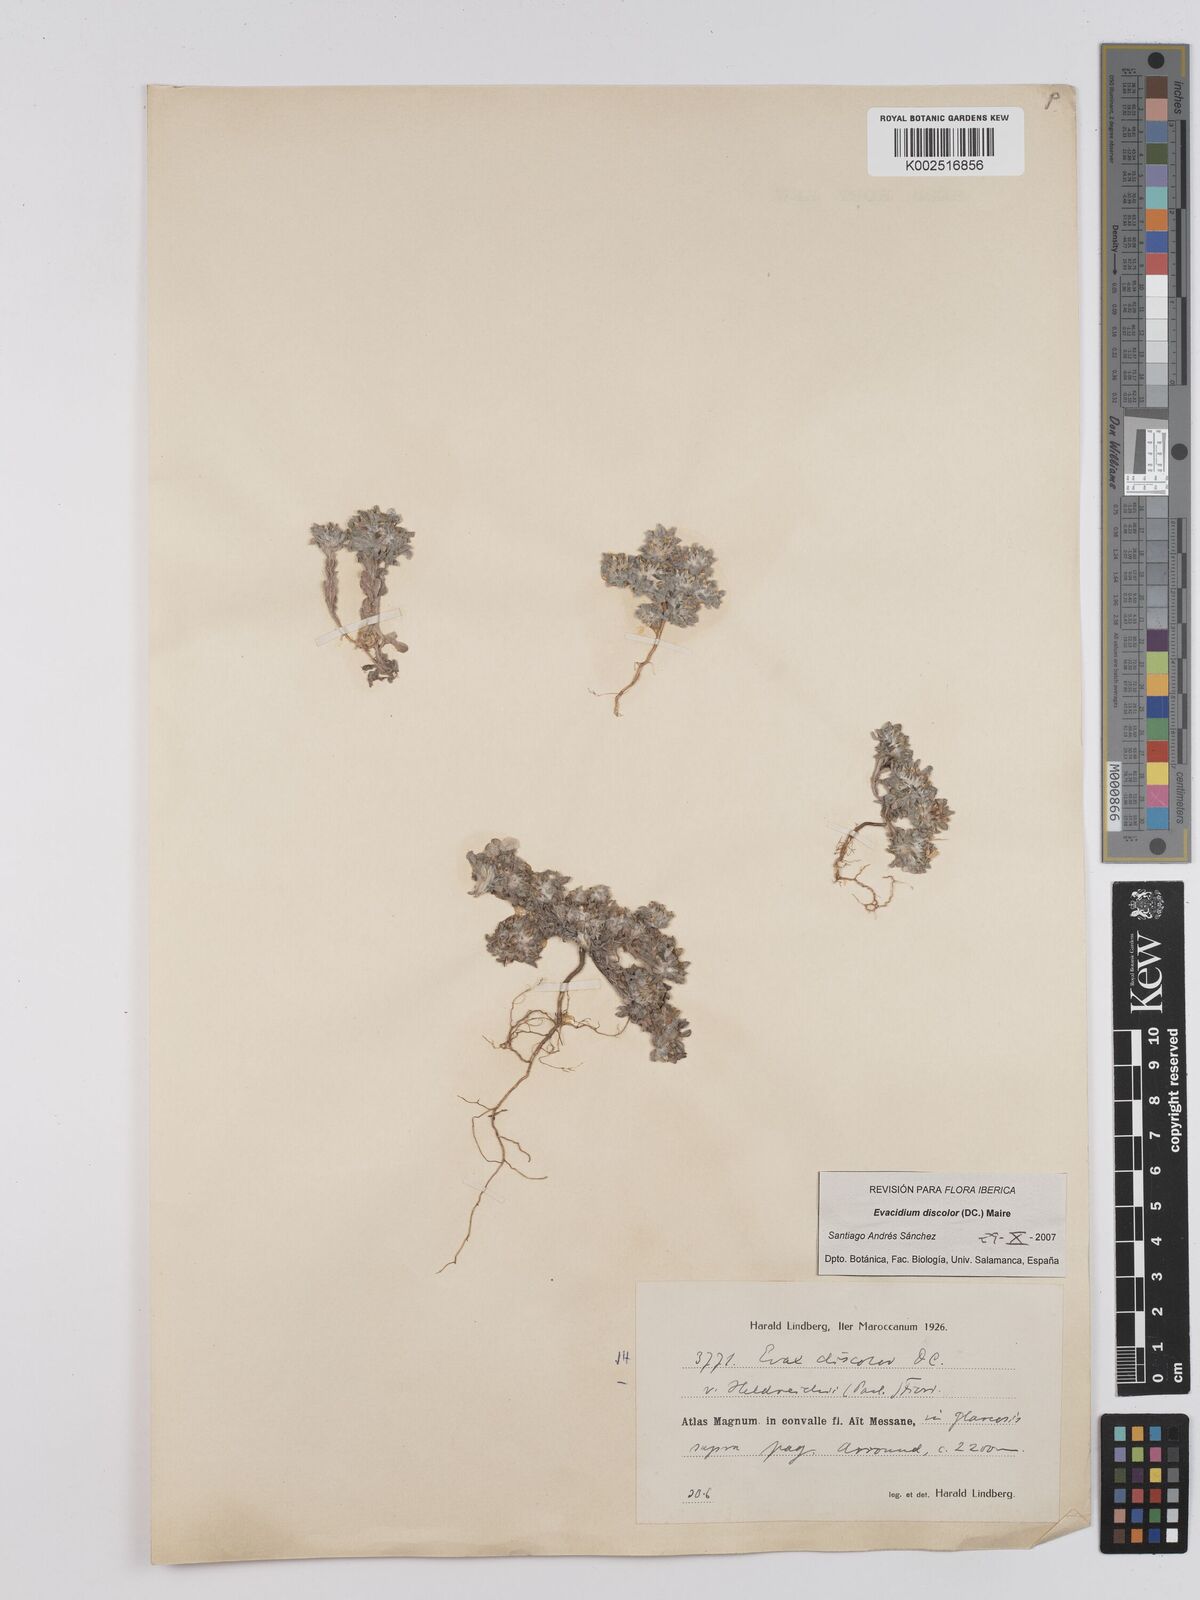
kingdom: Plantae
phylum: Tracheophyta
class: Magnoliopsida
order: Asterales
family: Asteraceae
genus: Filago
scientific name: Filago discolor
